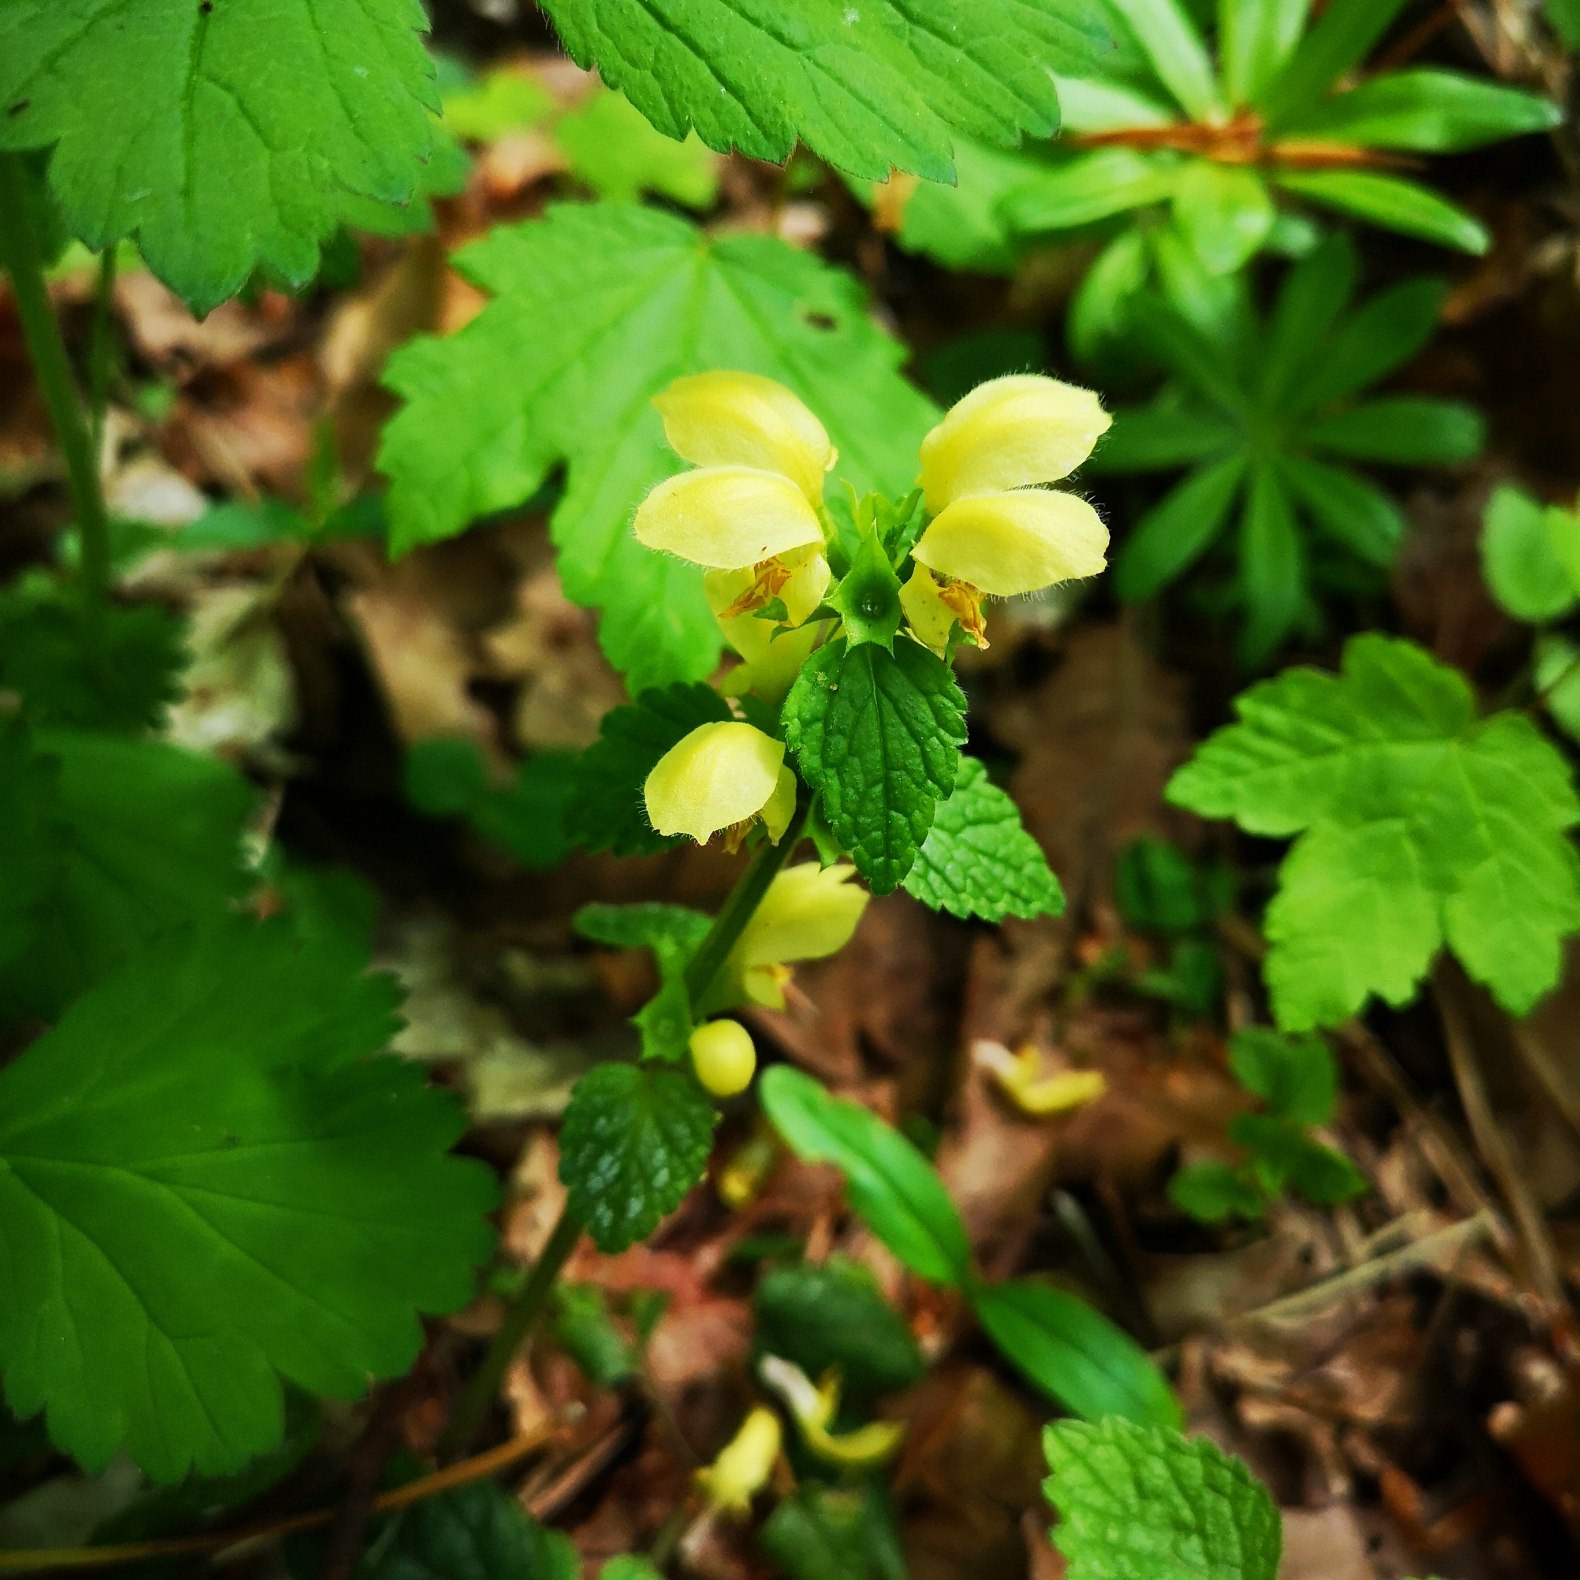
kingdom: Plantae
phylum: Tracheophyta
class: Magnoliopsida
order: Lamiales
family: Lamiaceae
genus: Lamium
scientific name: Lamium galeobdolon
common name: Almindelig guldnælde
